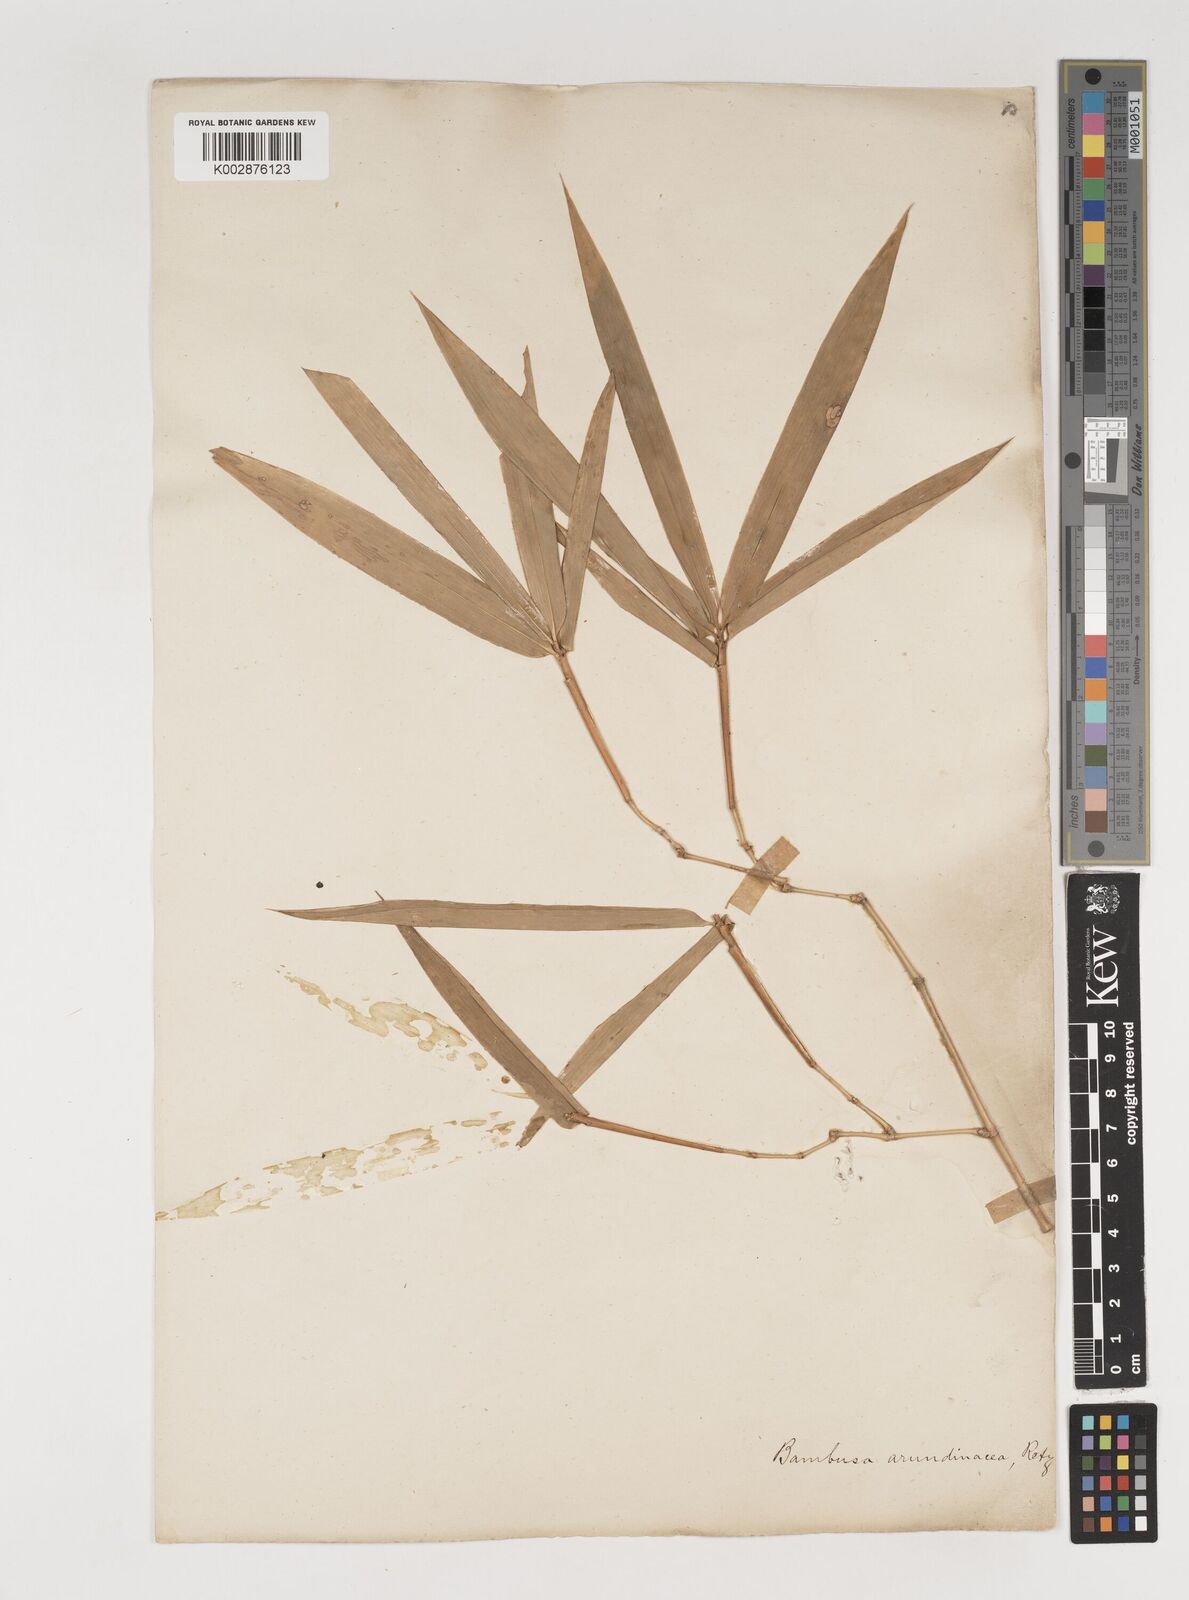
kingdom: Plantae
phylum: Tracheophyta
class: Liliopsida
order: Poales
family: Poaceae
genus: Bambusa
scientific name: Bambusa bambos
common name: Indian thorny bamboo
